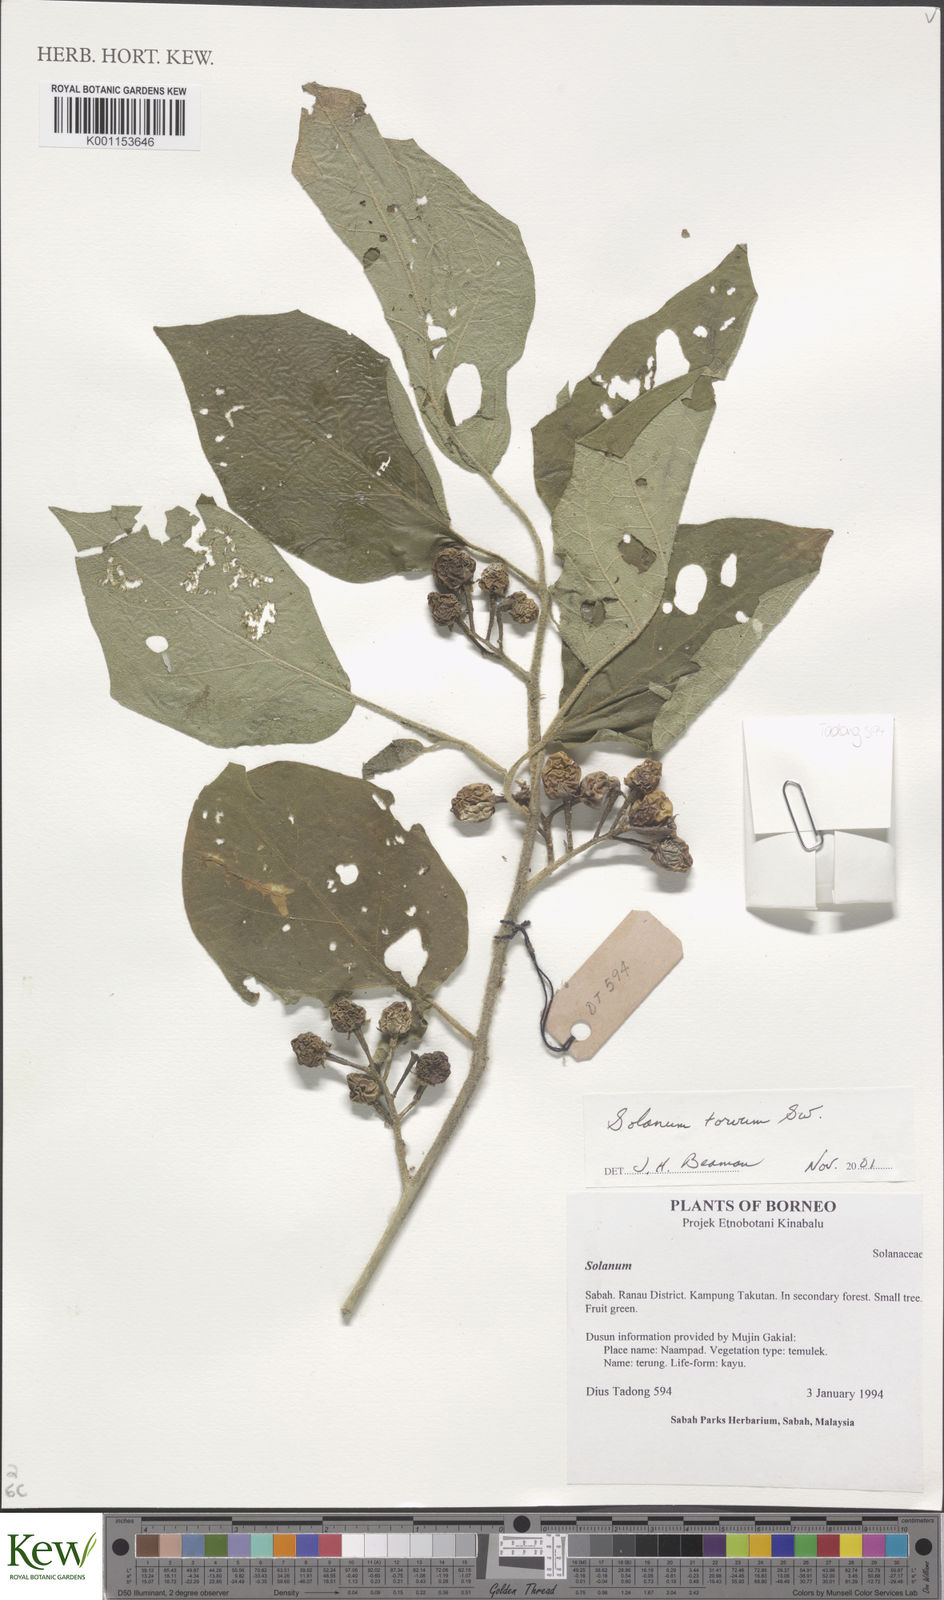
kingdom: Plantae
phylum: Tracheophyta
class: Magnoliopsida
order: Solanales
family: Solanaceae
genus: Solanum
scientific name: Solanum torvum
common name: Turkey berry
